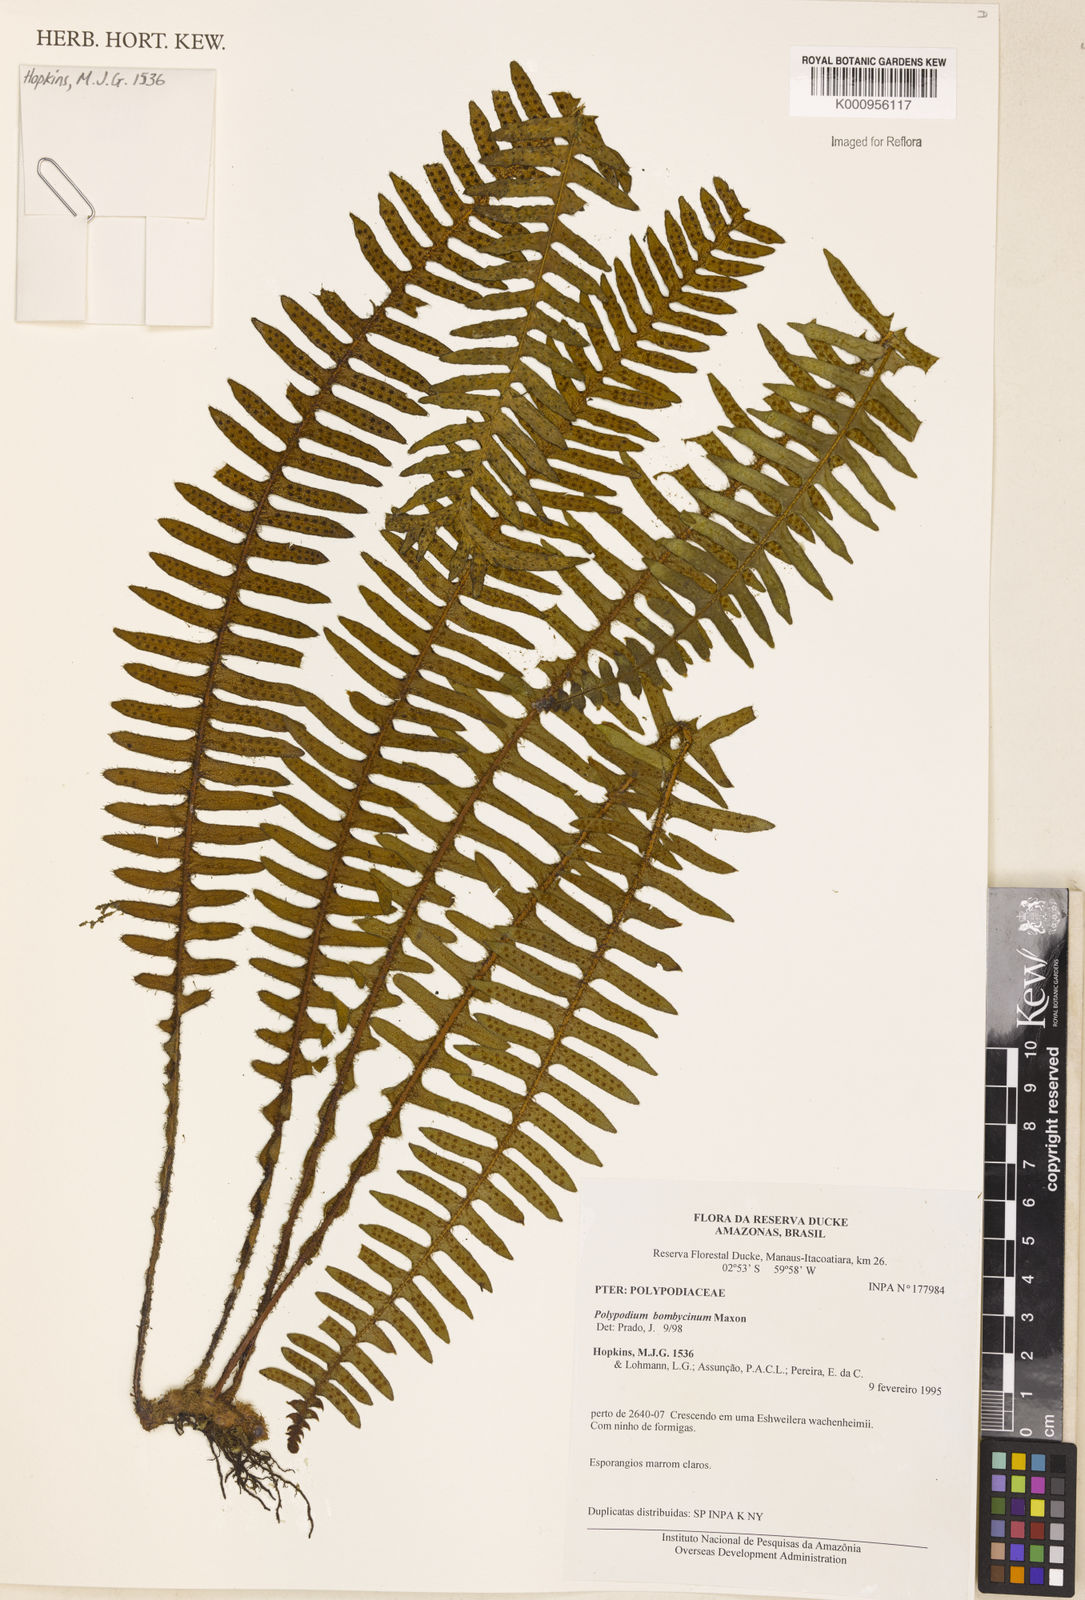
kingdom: Plantae
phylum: Tracheophyta
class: Polypodiopsida
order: Polypodiales
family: Polypodiaceae
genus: Pleopeltis
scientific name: Pleopeltis bombycina
